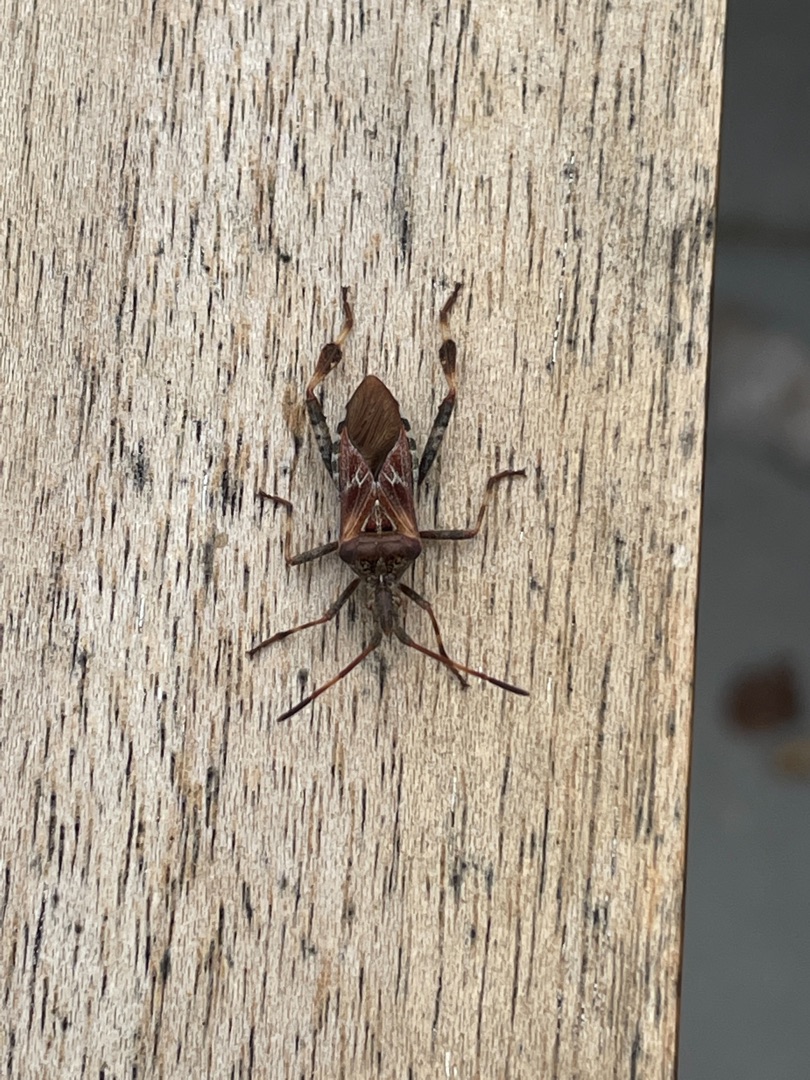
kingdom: Animalia
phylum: Arthropoda
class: Insecta
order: Hemiptera
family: Coreidae
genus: Leptoglossus
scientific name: Leptoglossus occidentalis
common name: Amerikansk fyrretæge
